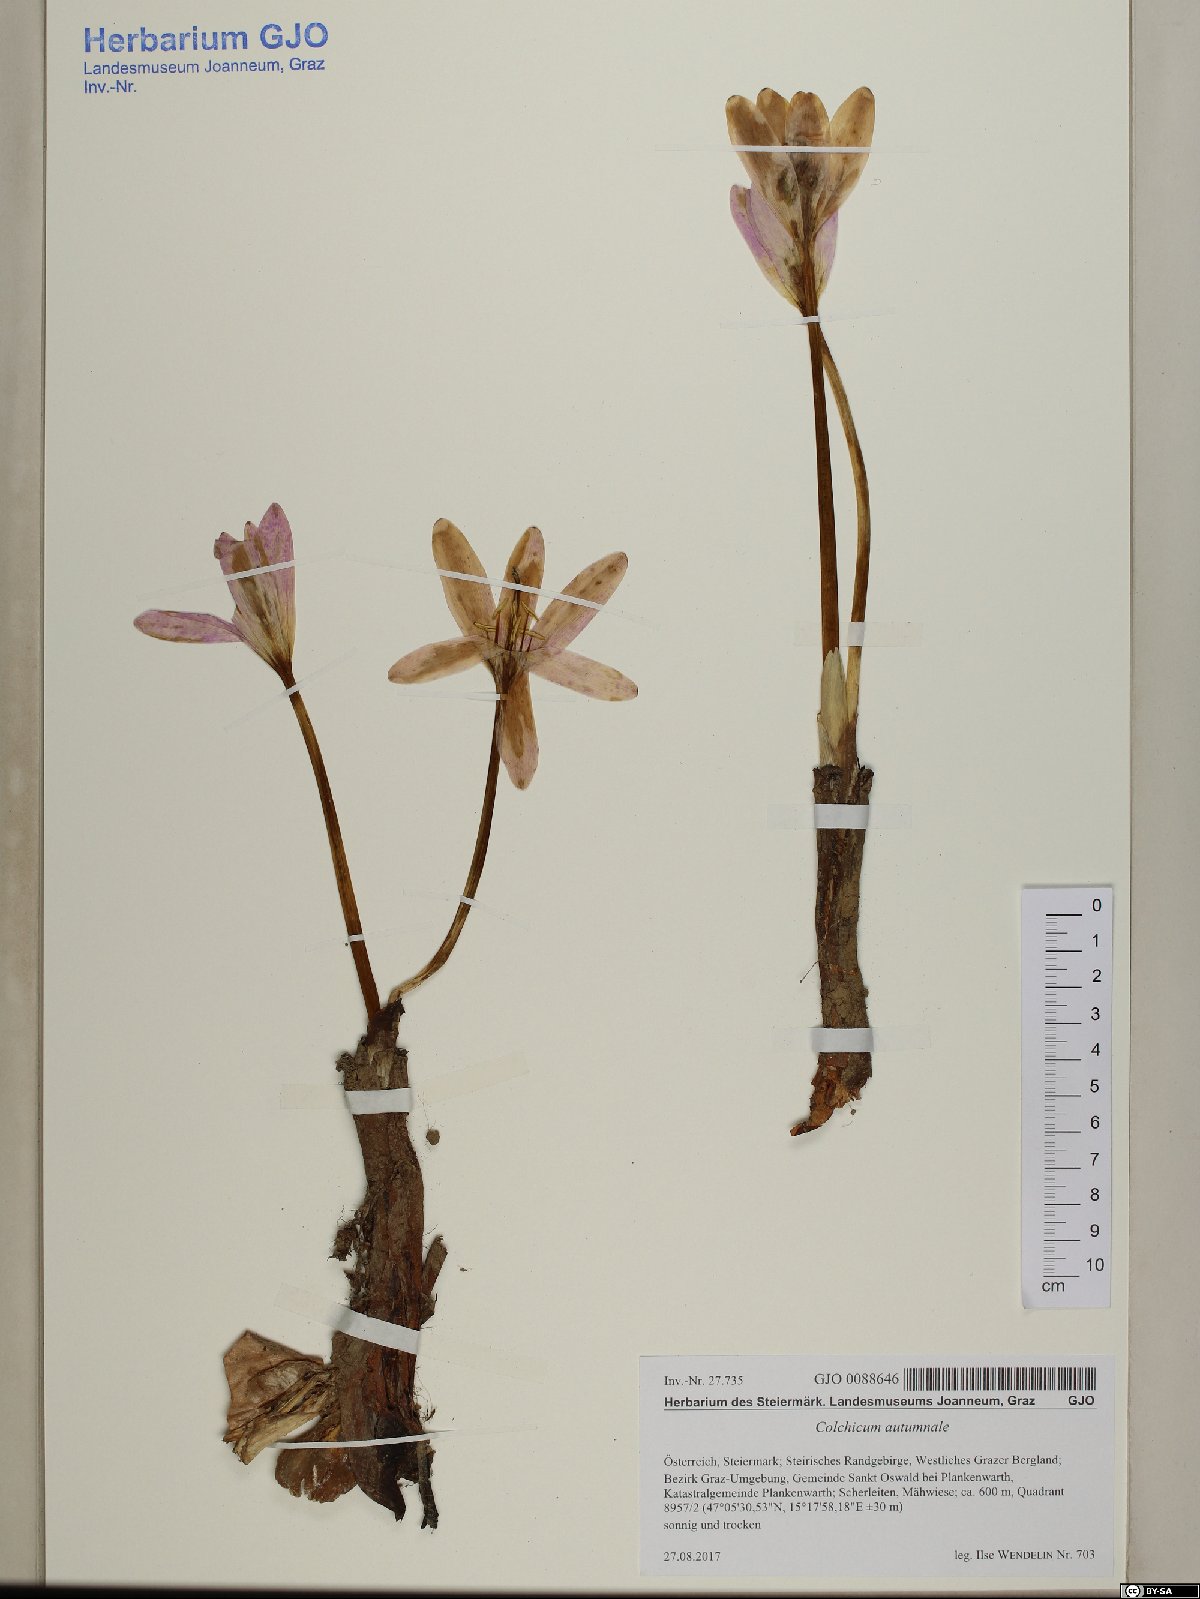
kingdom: Plantae
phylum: Tracheophyta
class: Liliopsida
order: Liliales
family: Colchicaceae
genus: Colchicum
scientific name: Colchicum autumnale
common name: Autumn crocus
